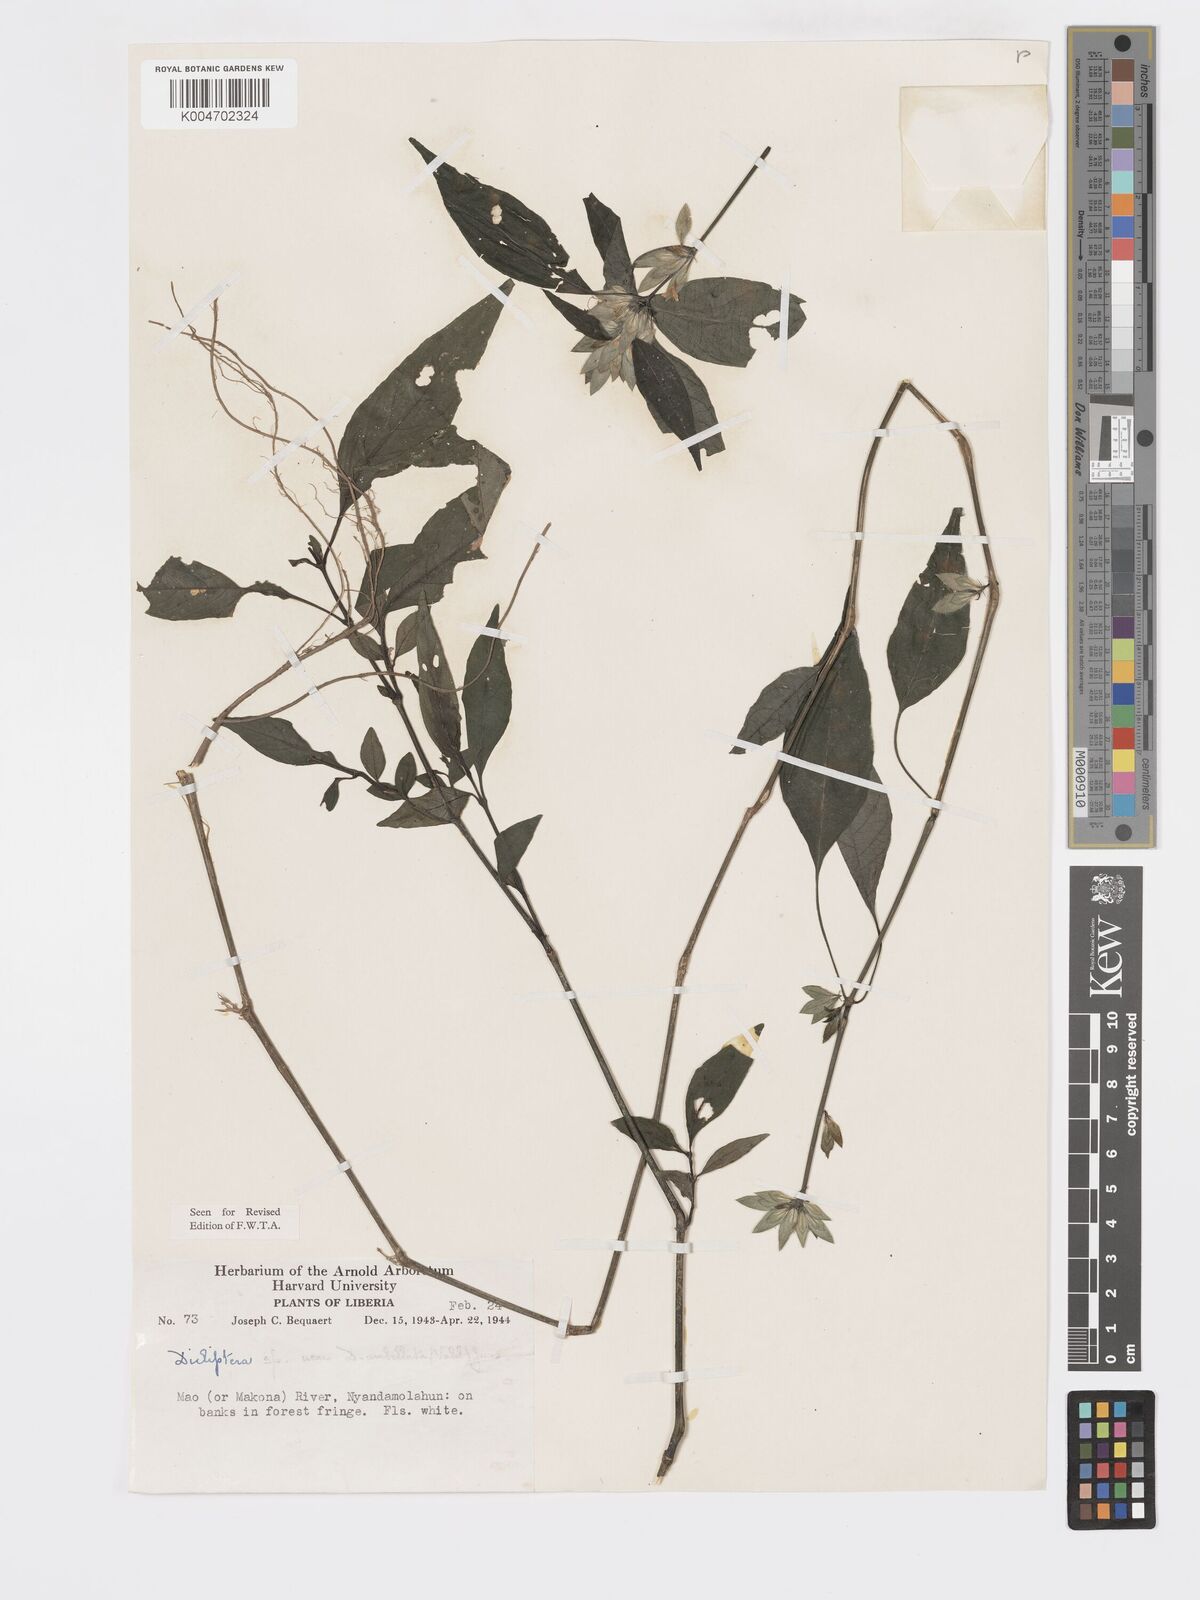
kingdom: Plantae
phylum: Tracheophyta
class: Magnoliopsida
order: Lamiales
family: Acanthaceae
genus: Dicliptera
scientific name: Dicliptera
